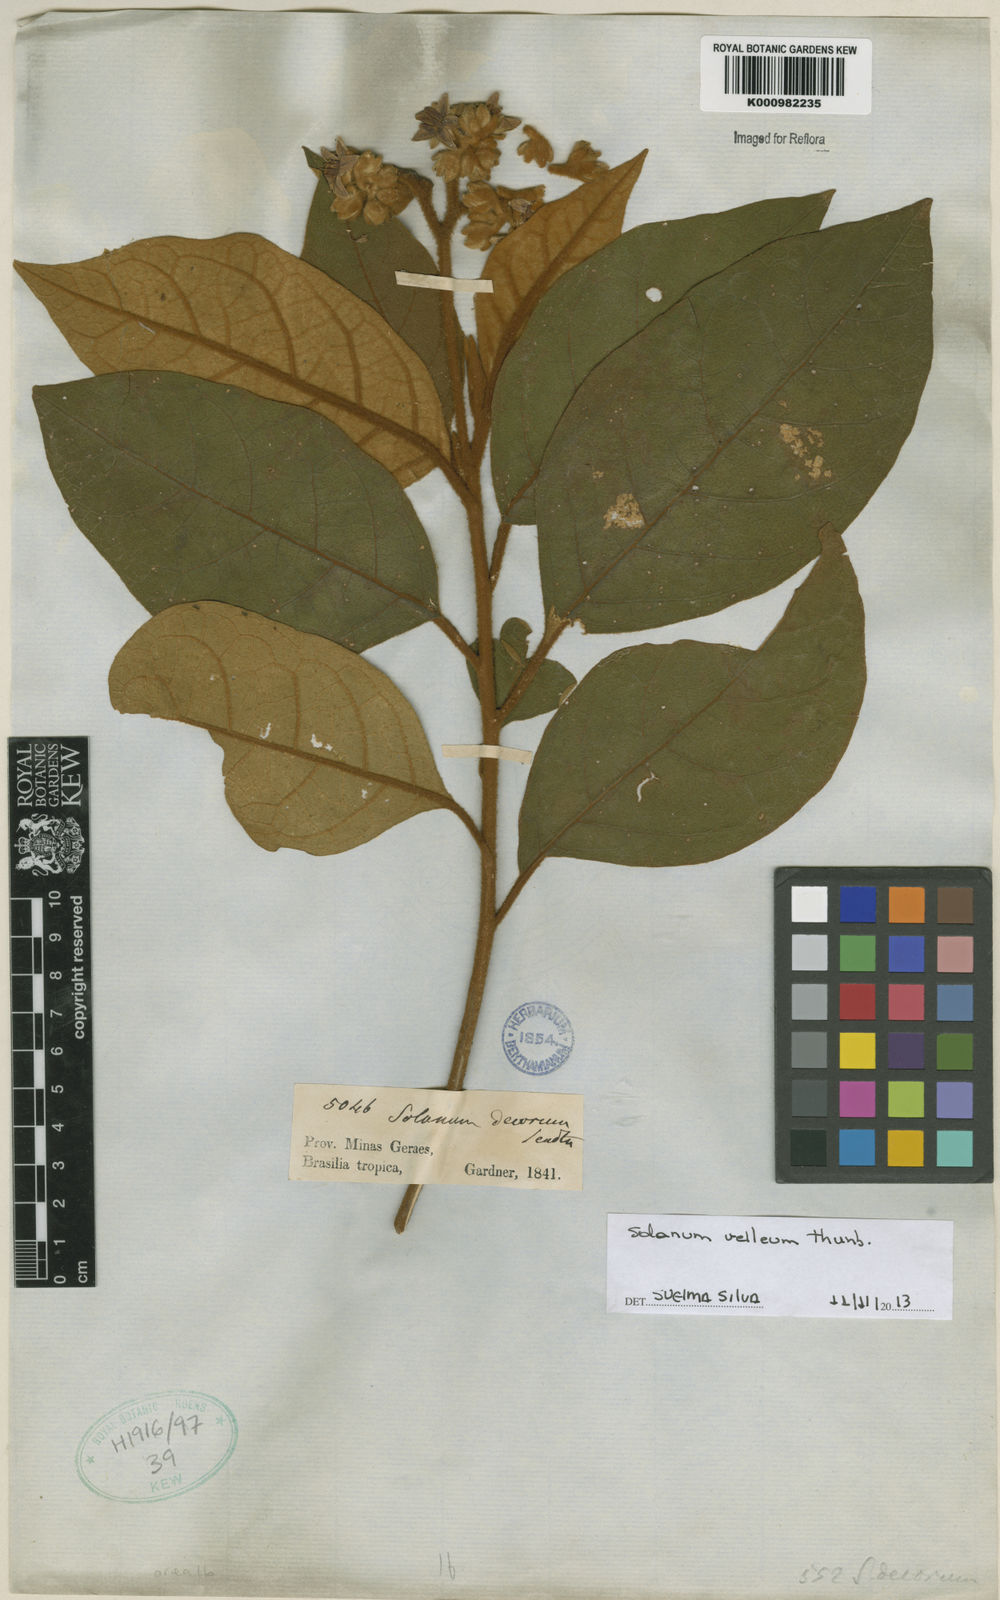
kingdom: Plantae
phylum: Tracheophyta
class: Magnoliopsida
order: Solanales
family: Solanaceae
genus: Solanum
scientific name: Solanum velleum
